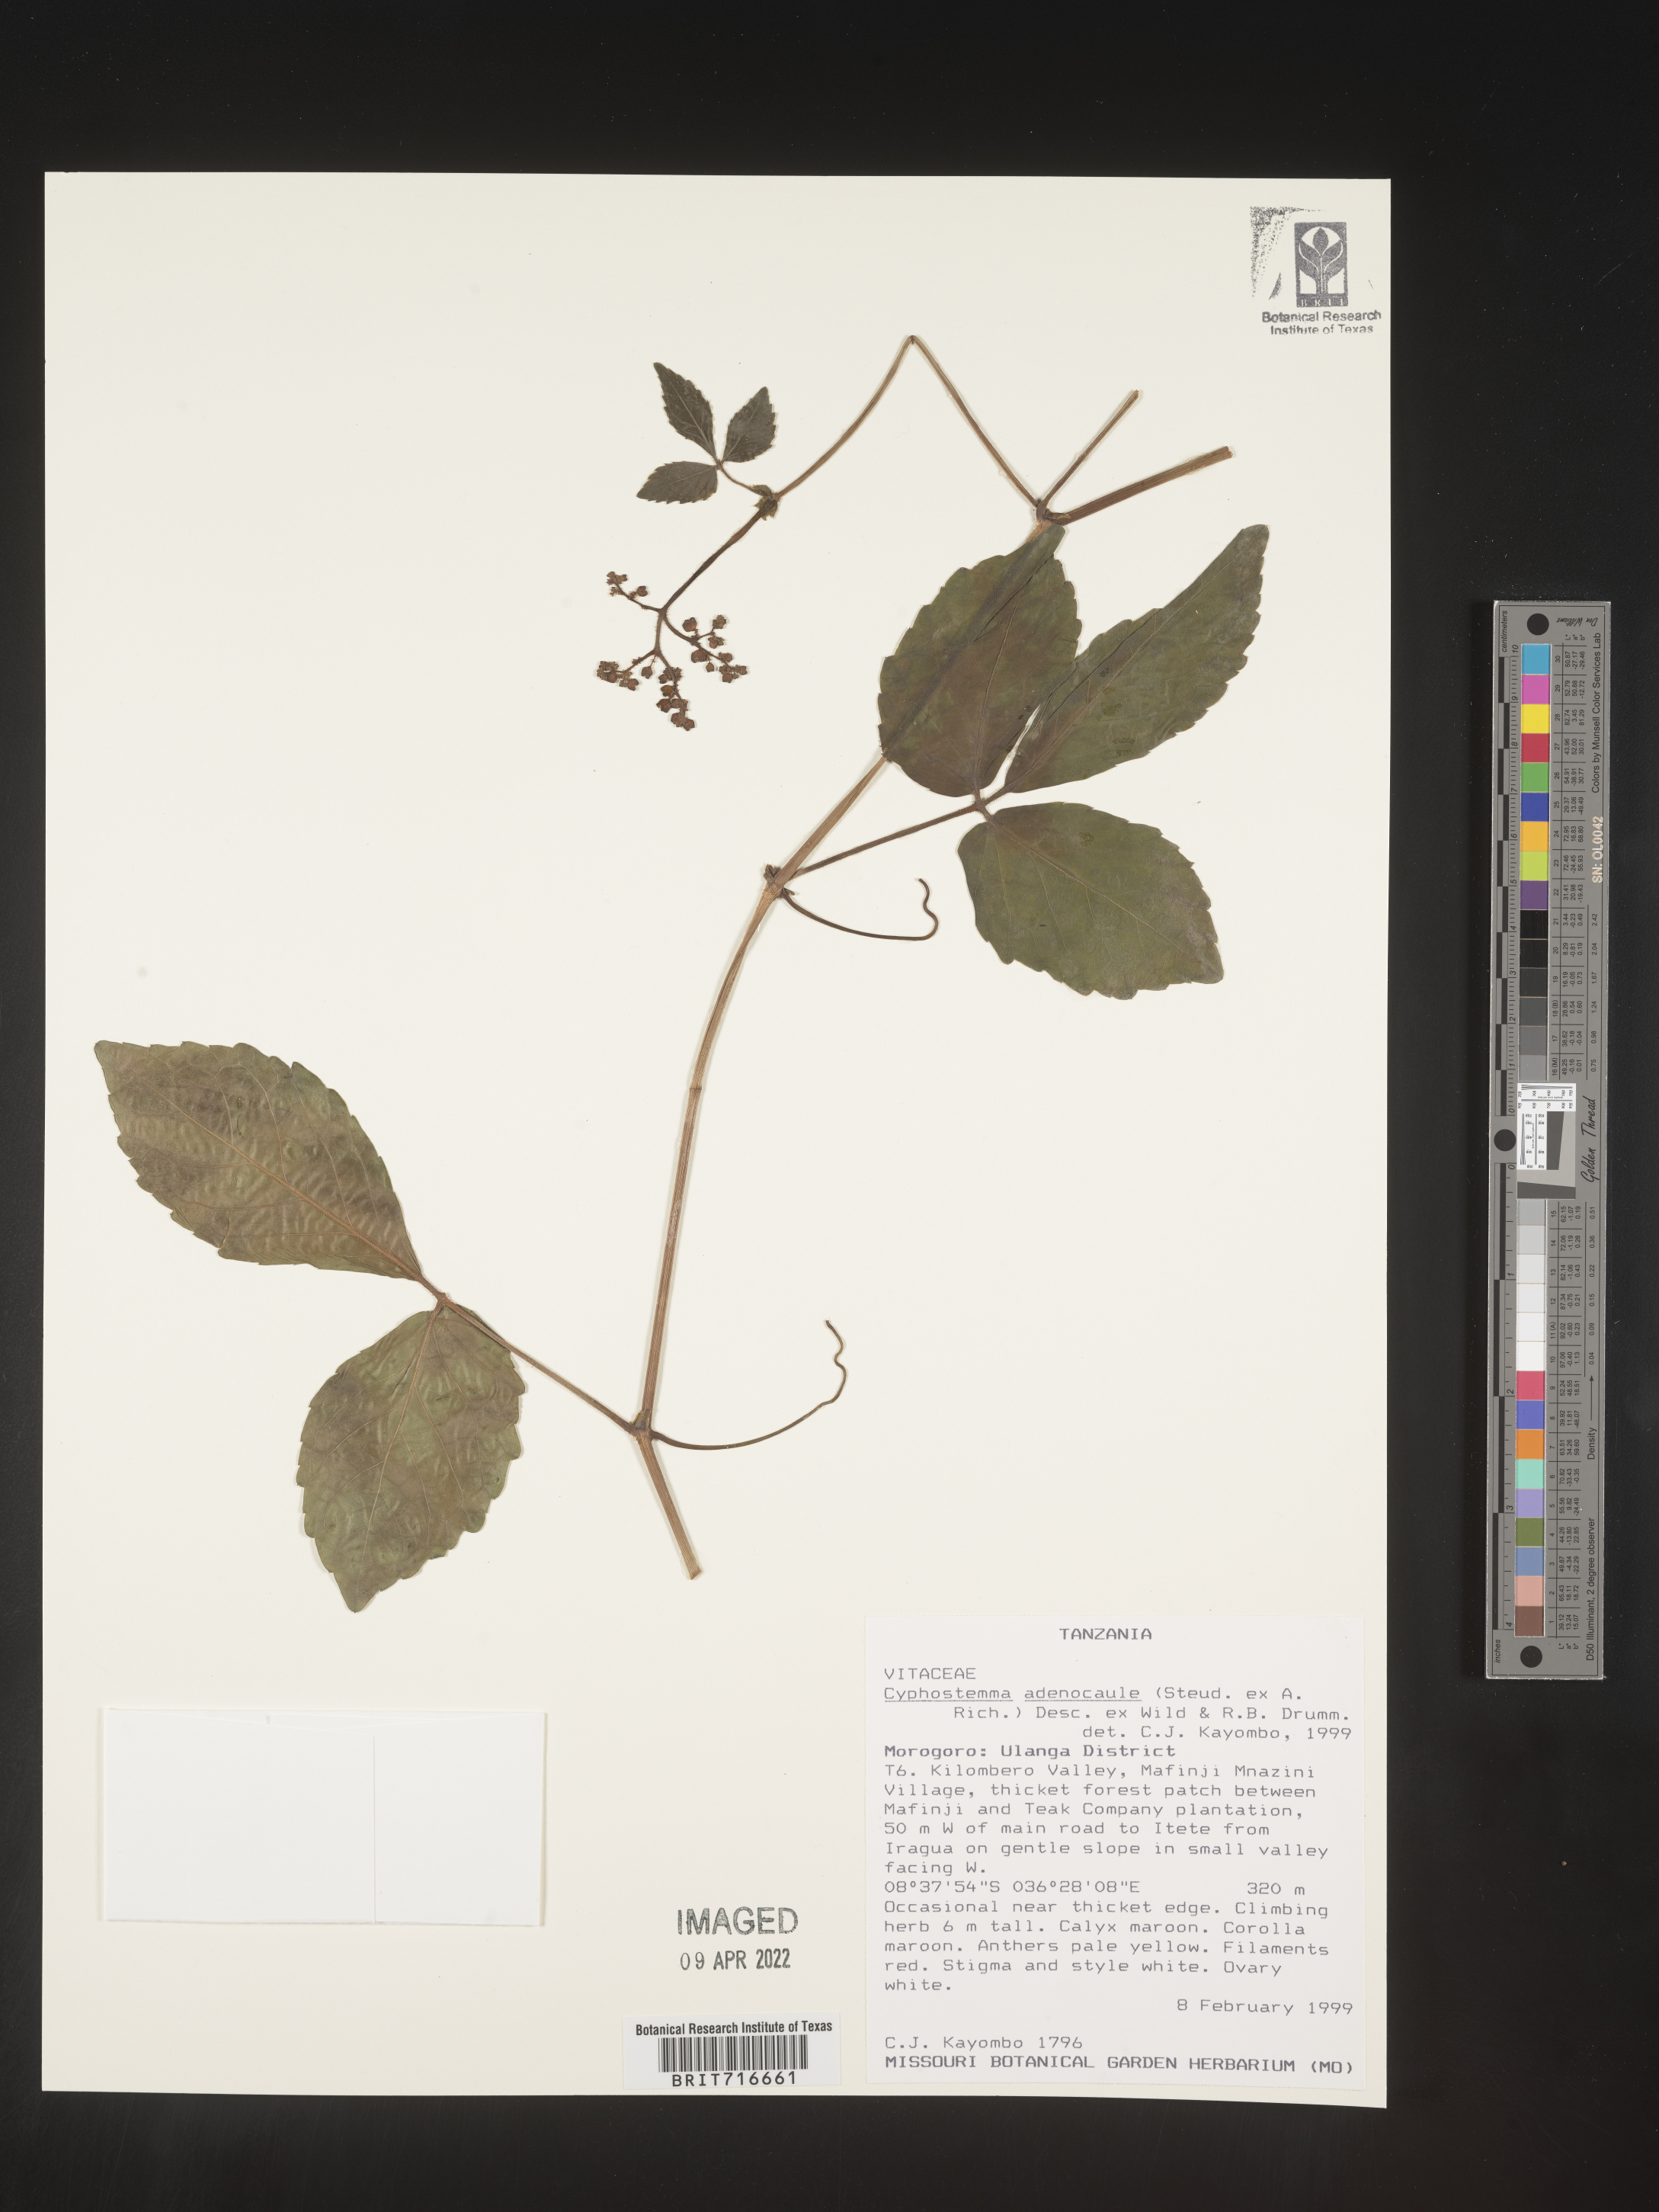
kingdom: Plantae
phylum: Tracheophyta
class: Magnoliopsida
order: Vitales
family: Vitaceae
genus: Cyphostemma
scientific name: Cyphostemma
